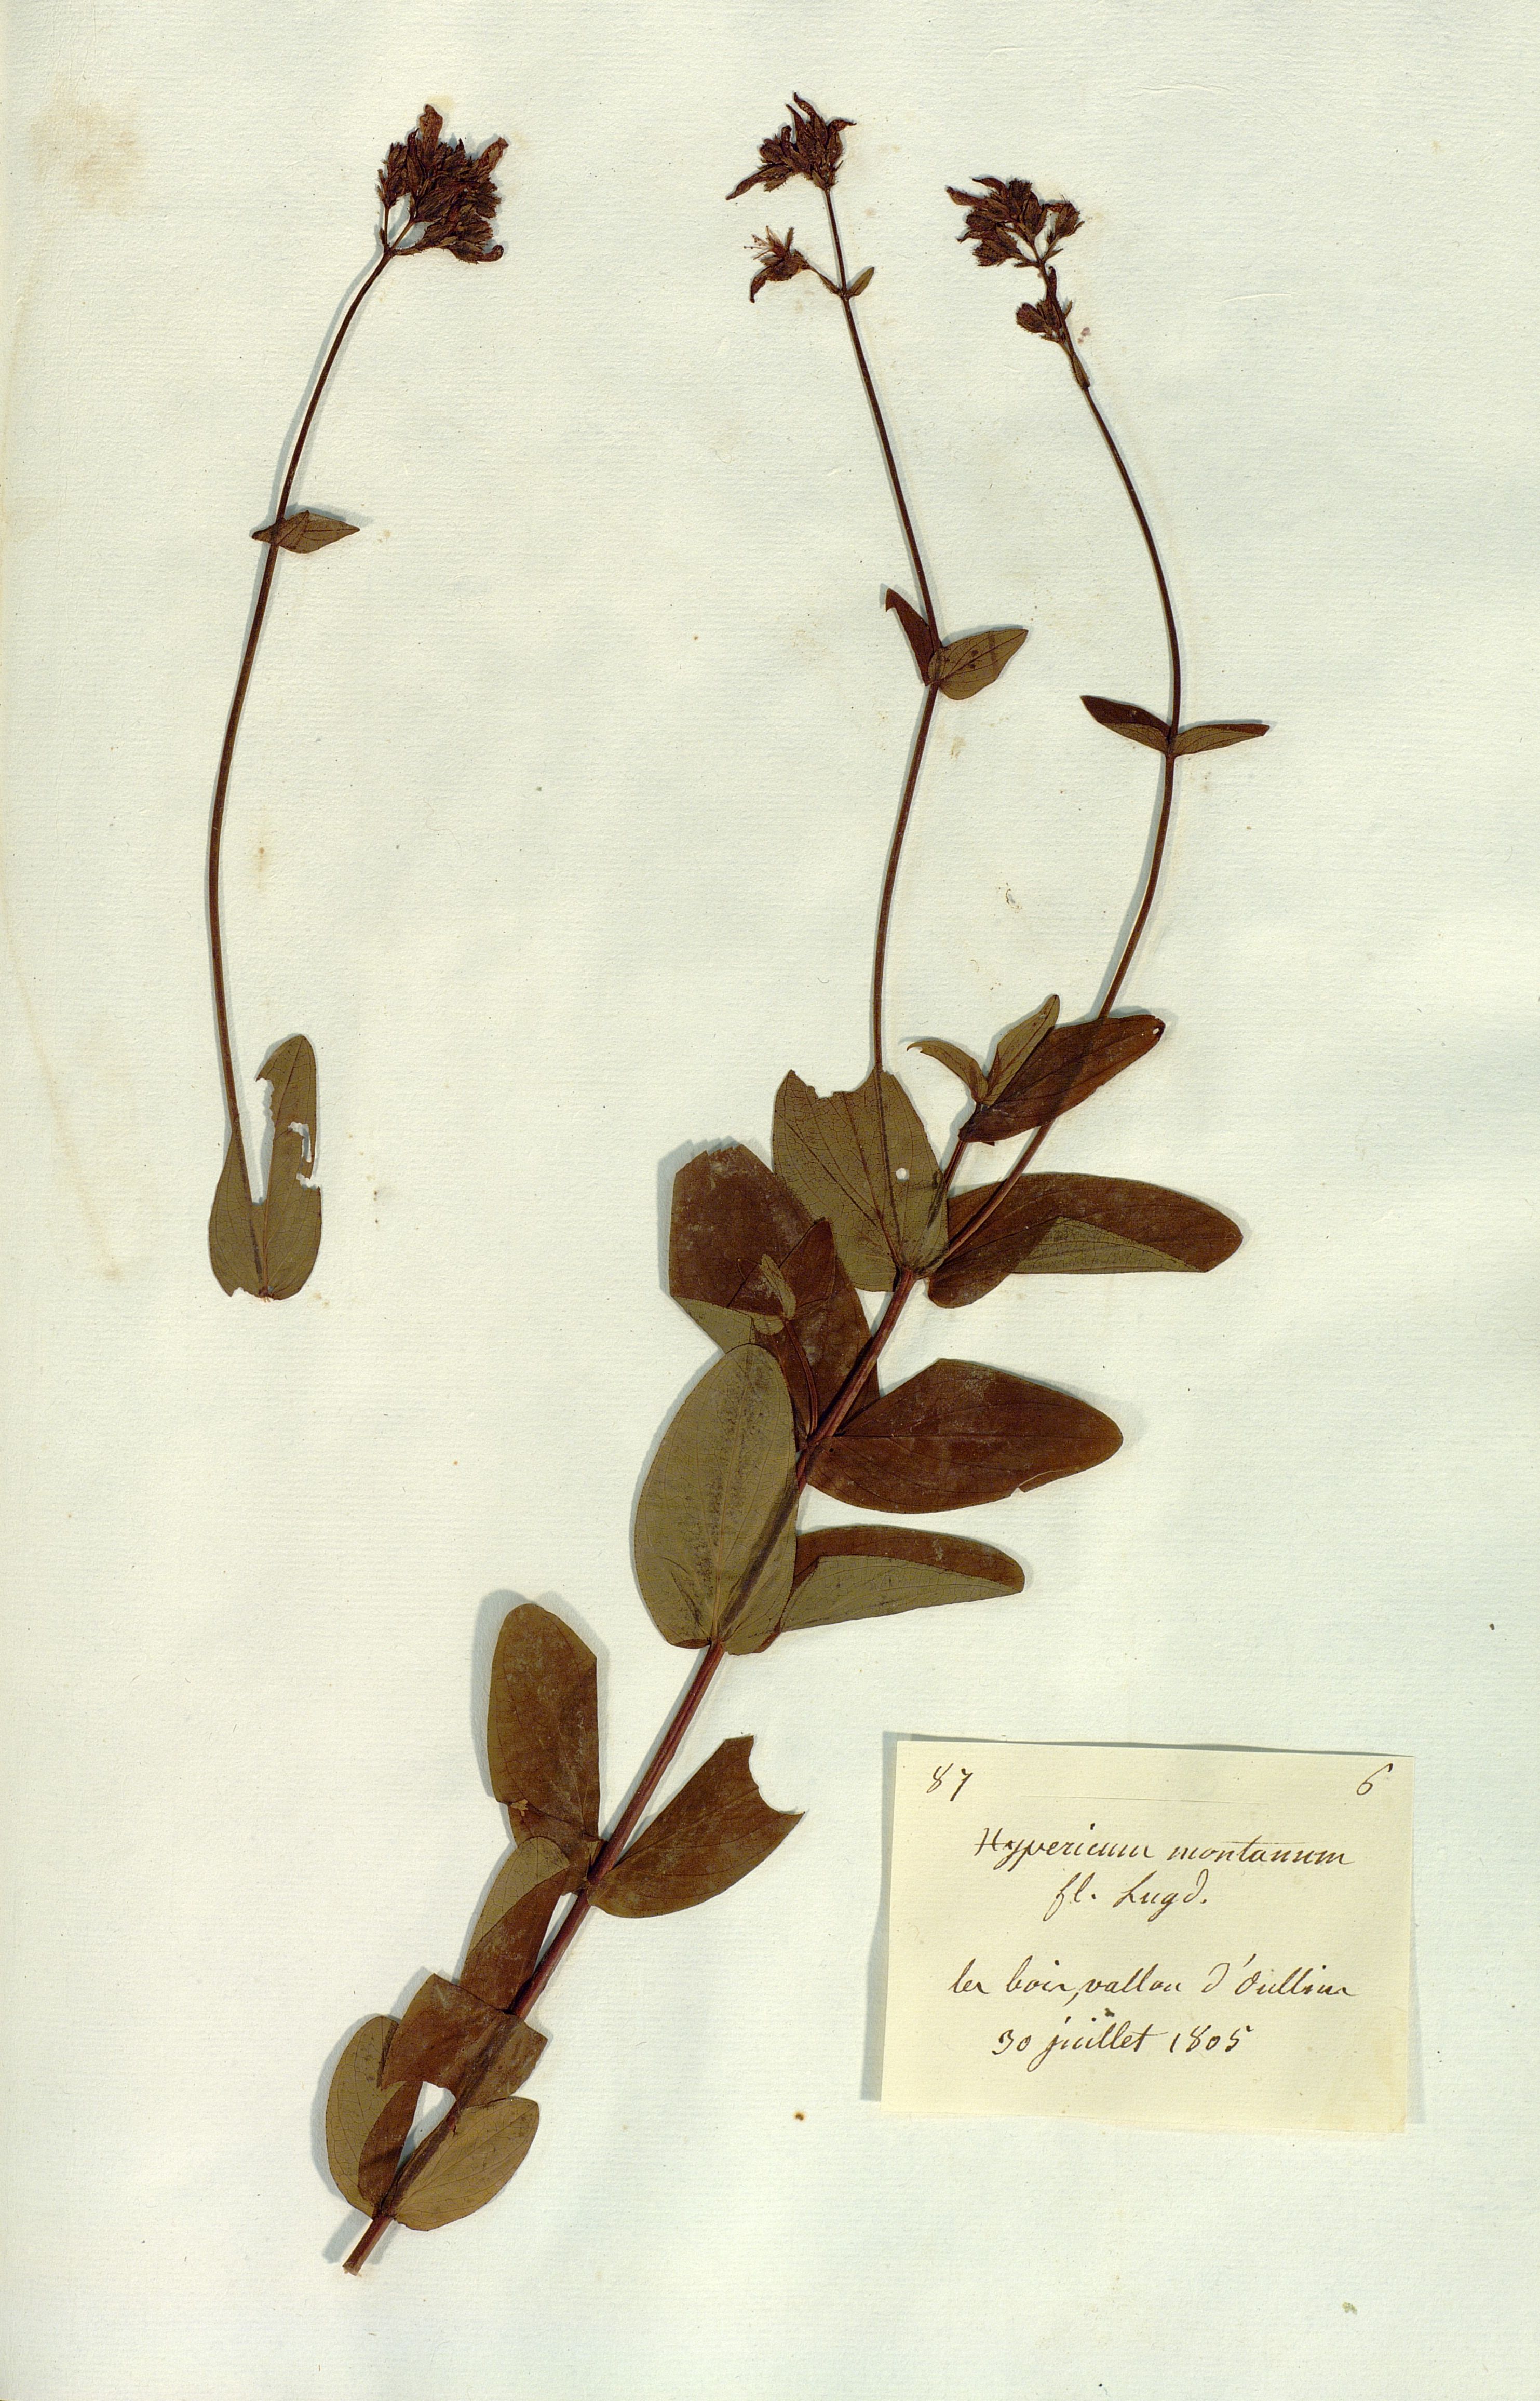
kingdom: Plantae
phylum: Tracheophyta
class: Magnoliopsida
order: Malpighiales
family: Hypericaceae
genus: Hypericum
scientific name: Hypericum montanum
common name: Pale st. john's-wort
